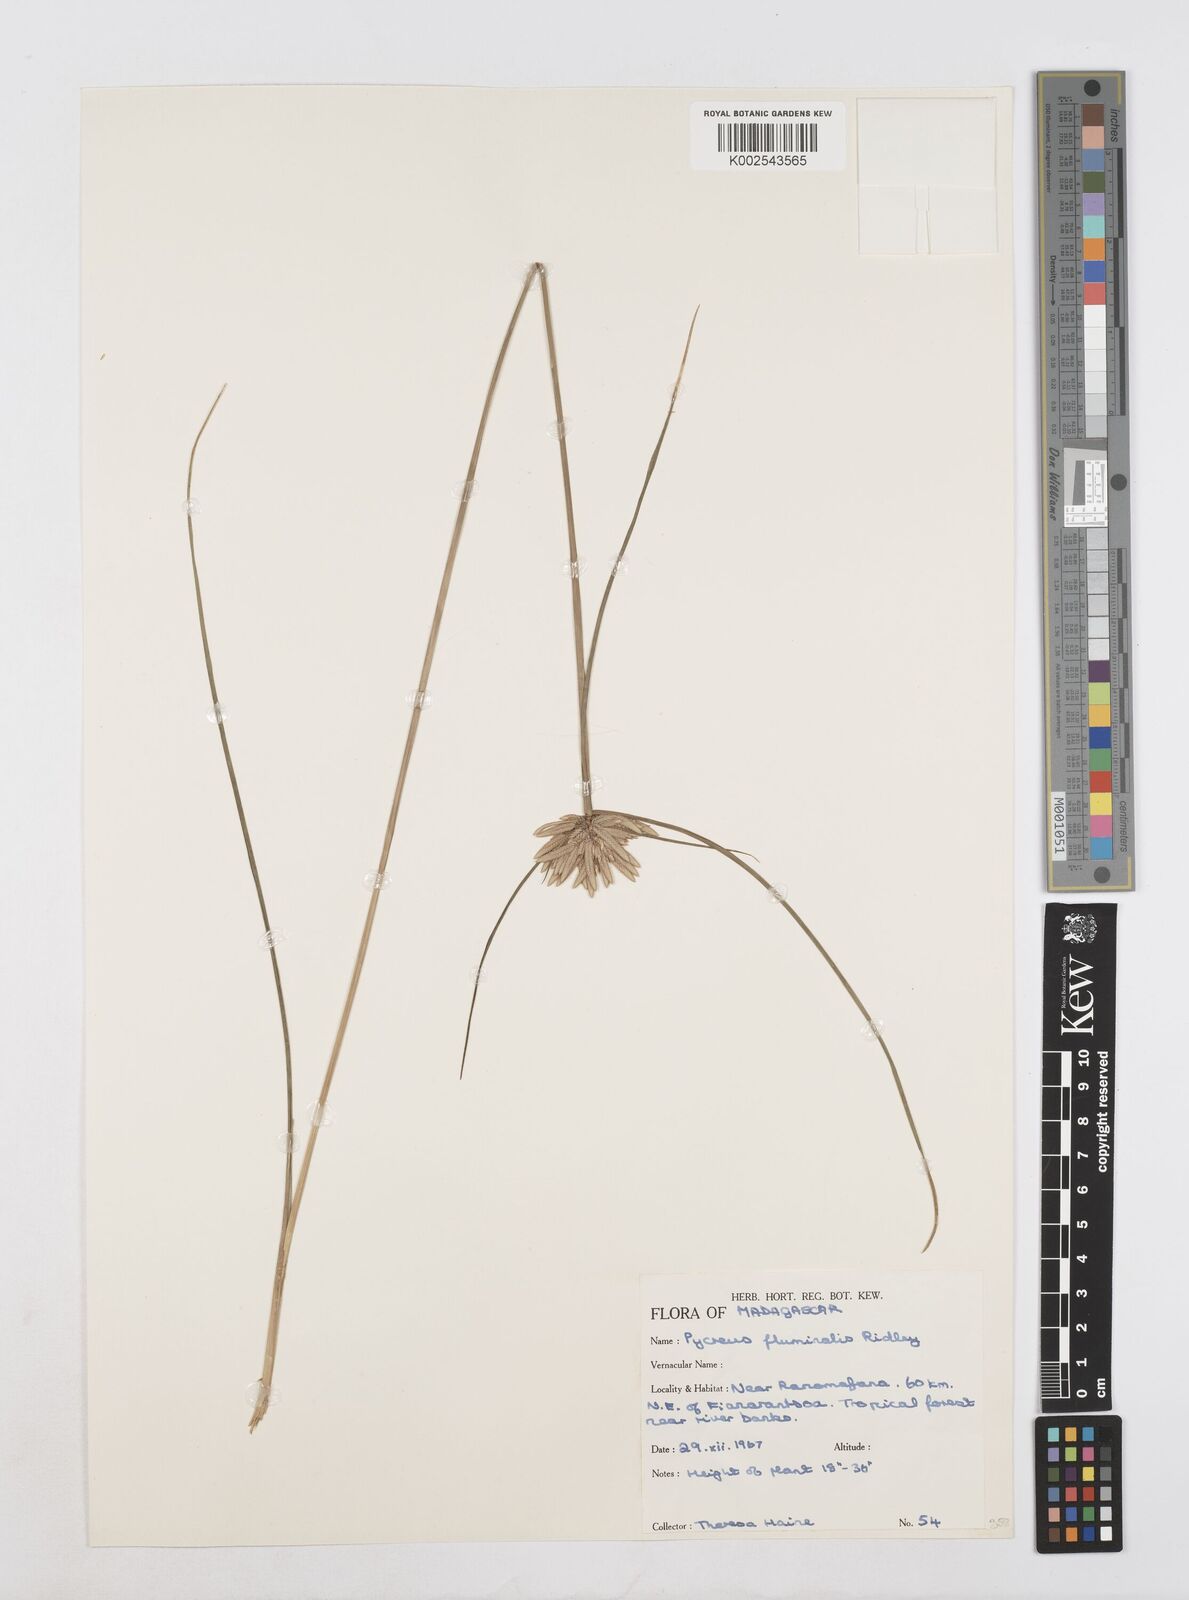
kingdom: Plantae
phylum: Tracheophyta
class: Liliopsida
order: Poales
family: Cyperaceae
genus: Cyperus
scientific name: Cyperus smithianus
